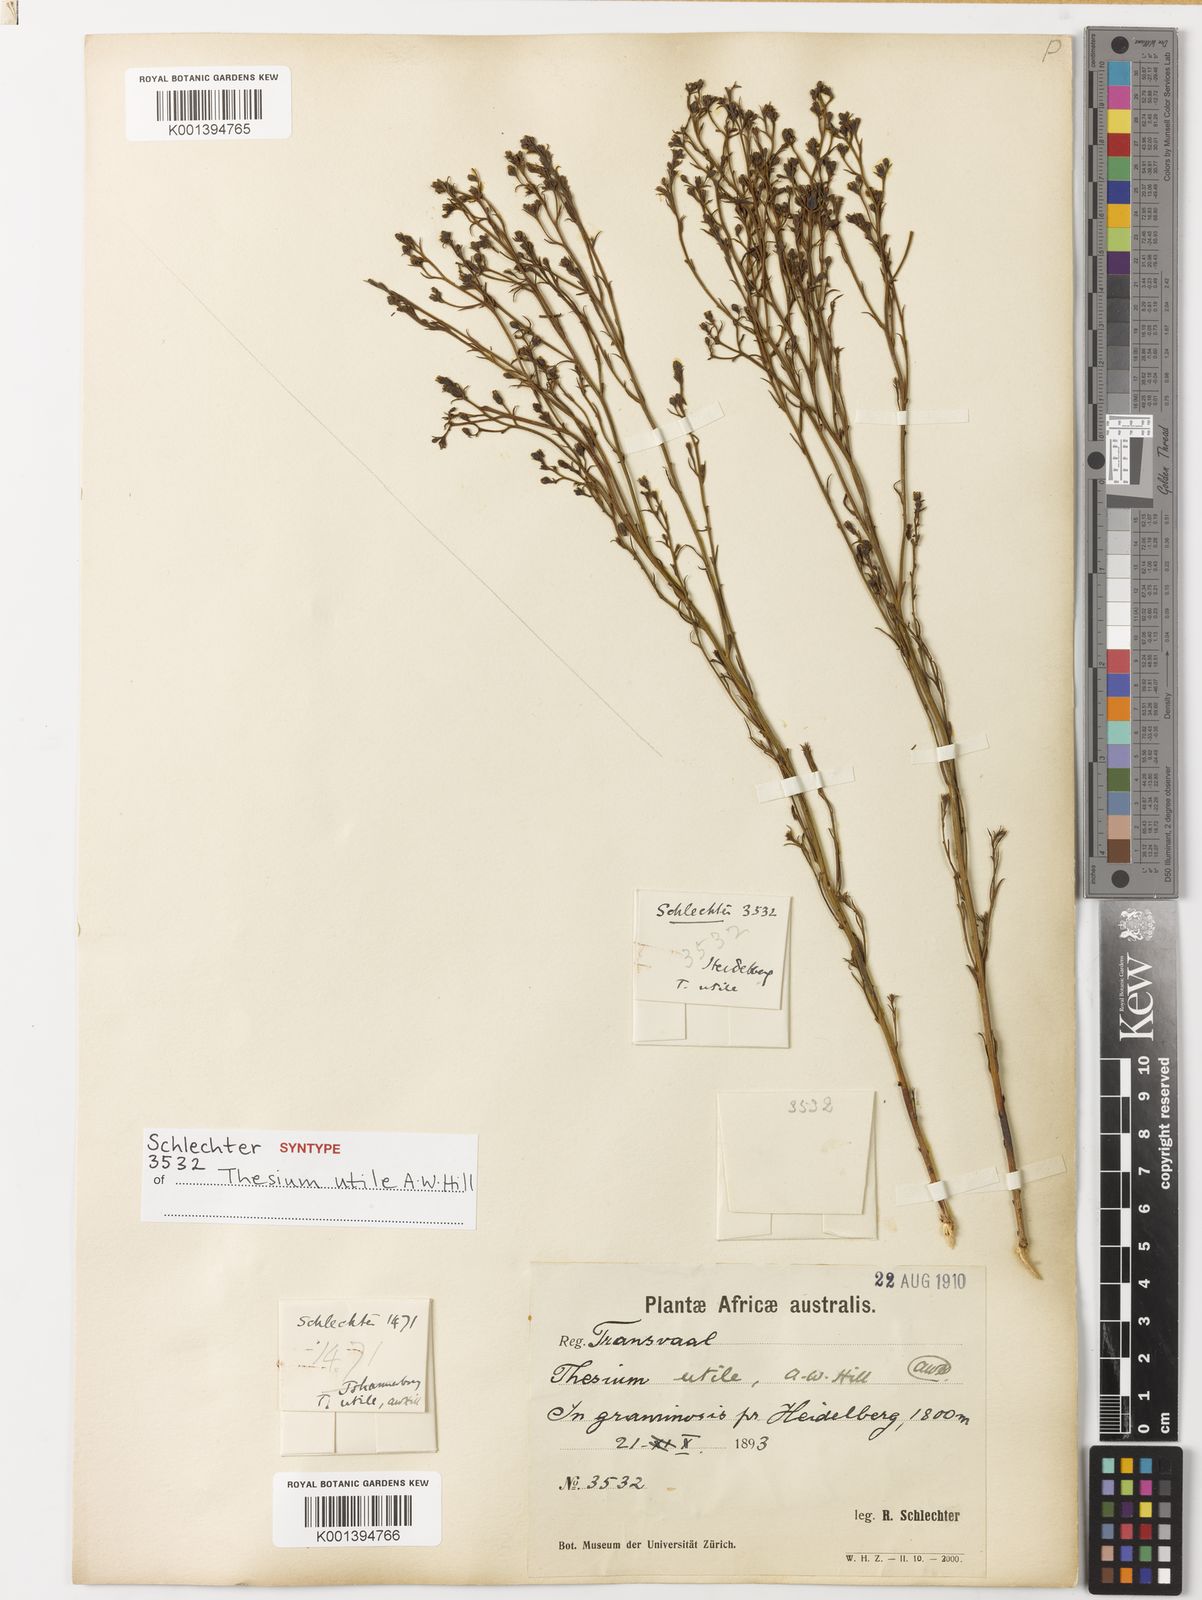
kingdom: Plantae
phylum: Tracheophyta
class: Magnoliopsida
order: Santalales
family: Thesiaceae
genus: Thesium
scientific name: Thesium utile
